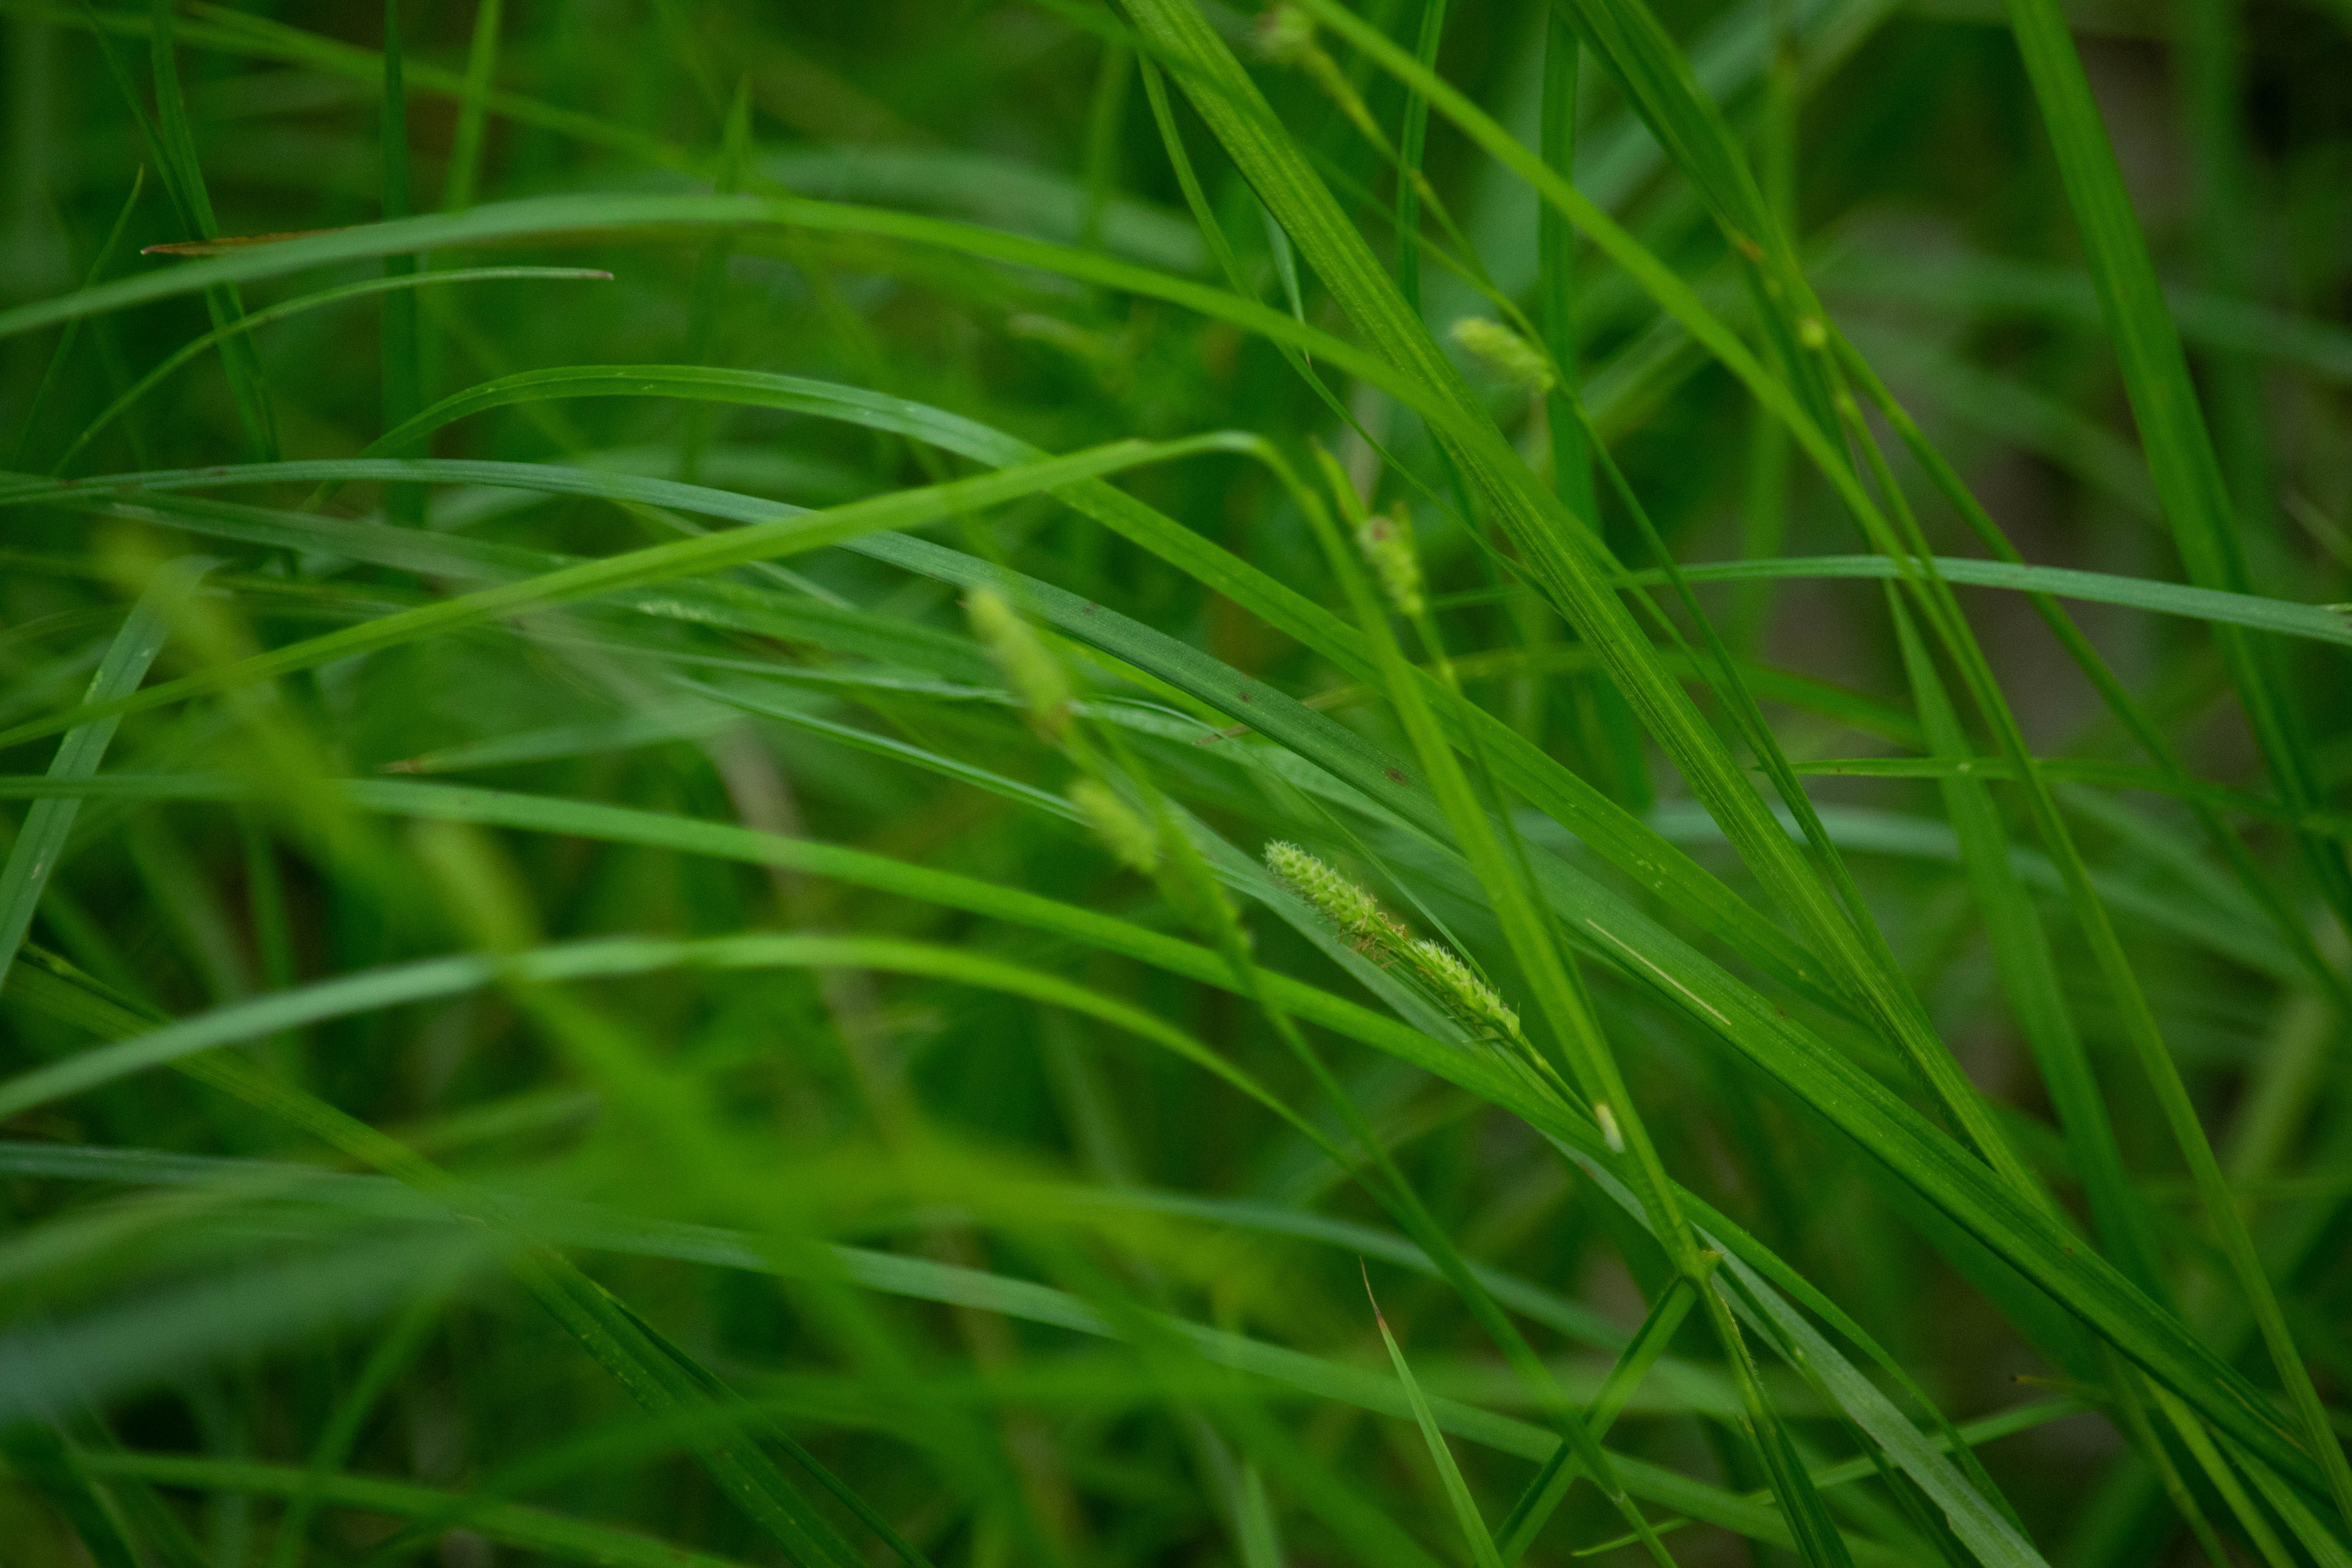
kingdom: Plantae
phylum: Tracheophyta
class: Liliopsida
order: Poales
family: Cyperaceae
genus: Carex
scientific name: Carex swanii
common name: Downy green sedge
